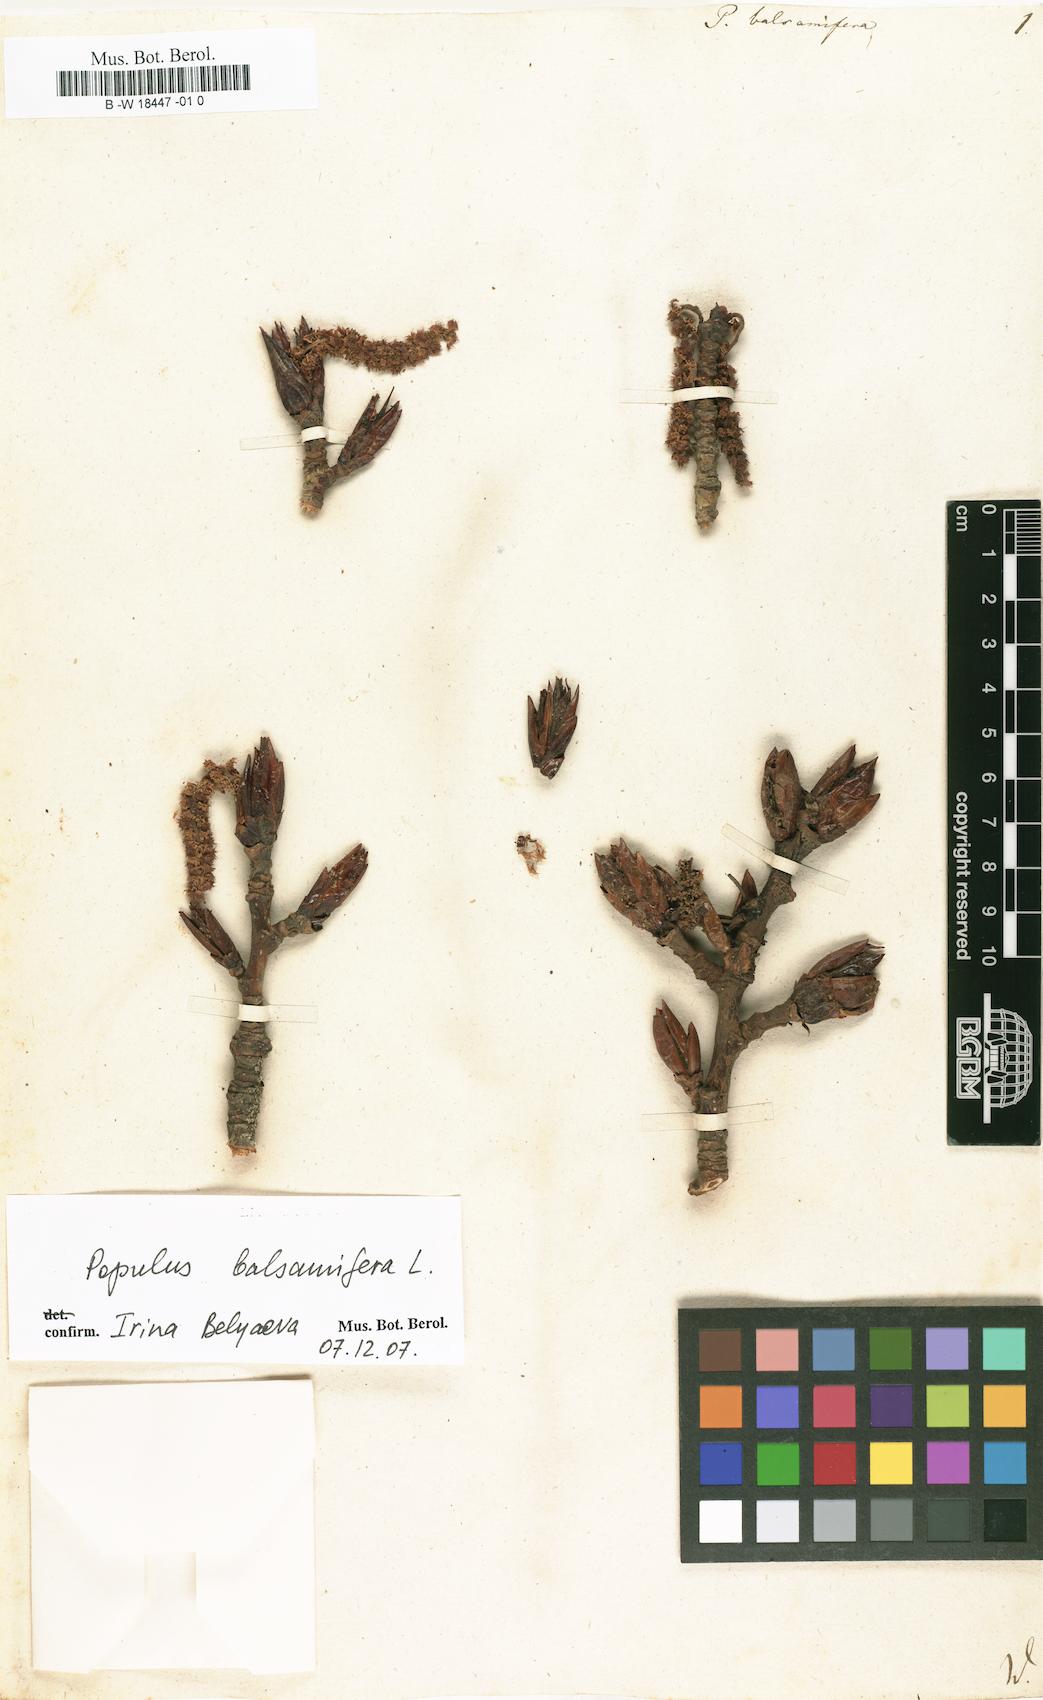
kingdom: Plantae
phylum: Tracheophyta
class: Magnoliopsida
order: Malpighiales
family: Salicaceae
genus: Populus
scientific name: Populus balsamifera
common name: Balsam poplar
